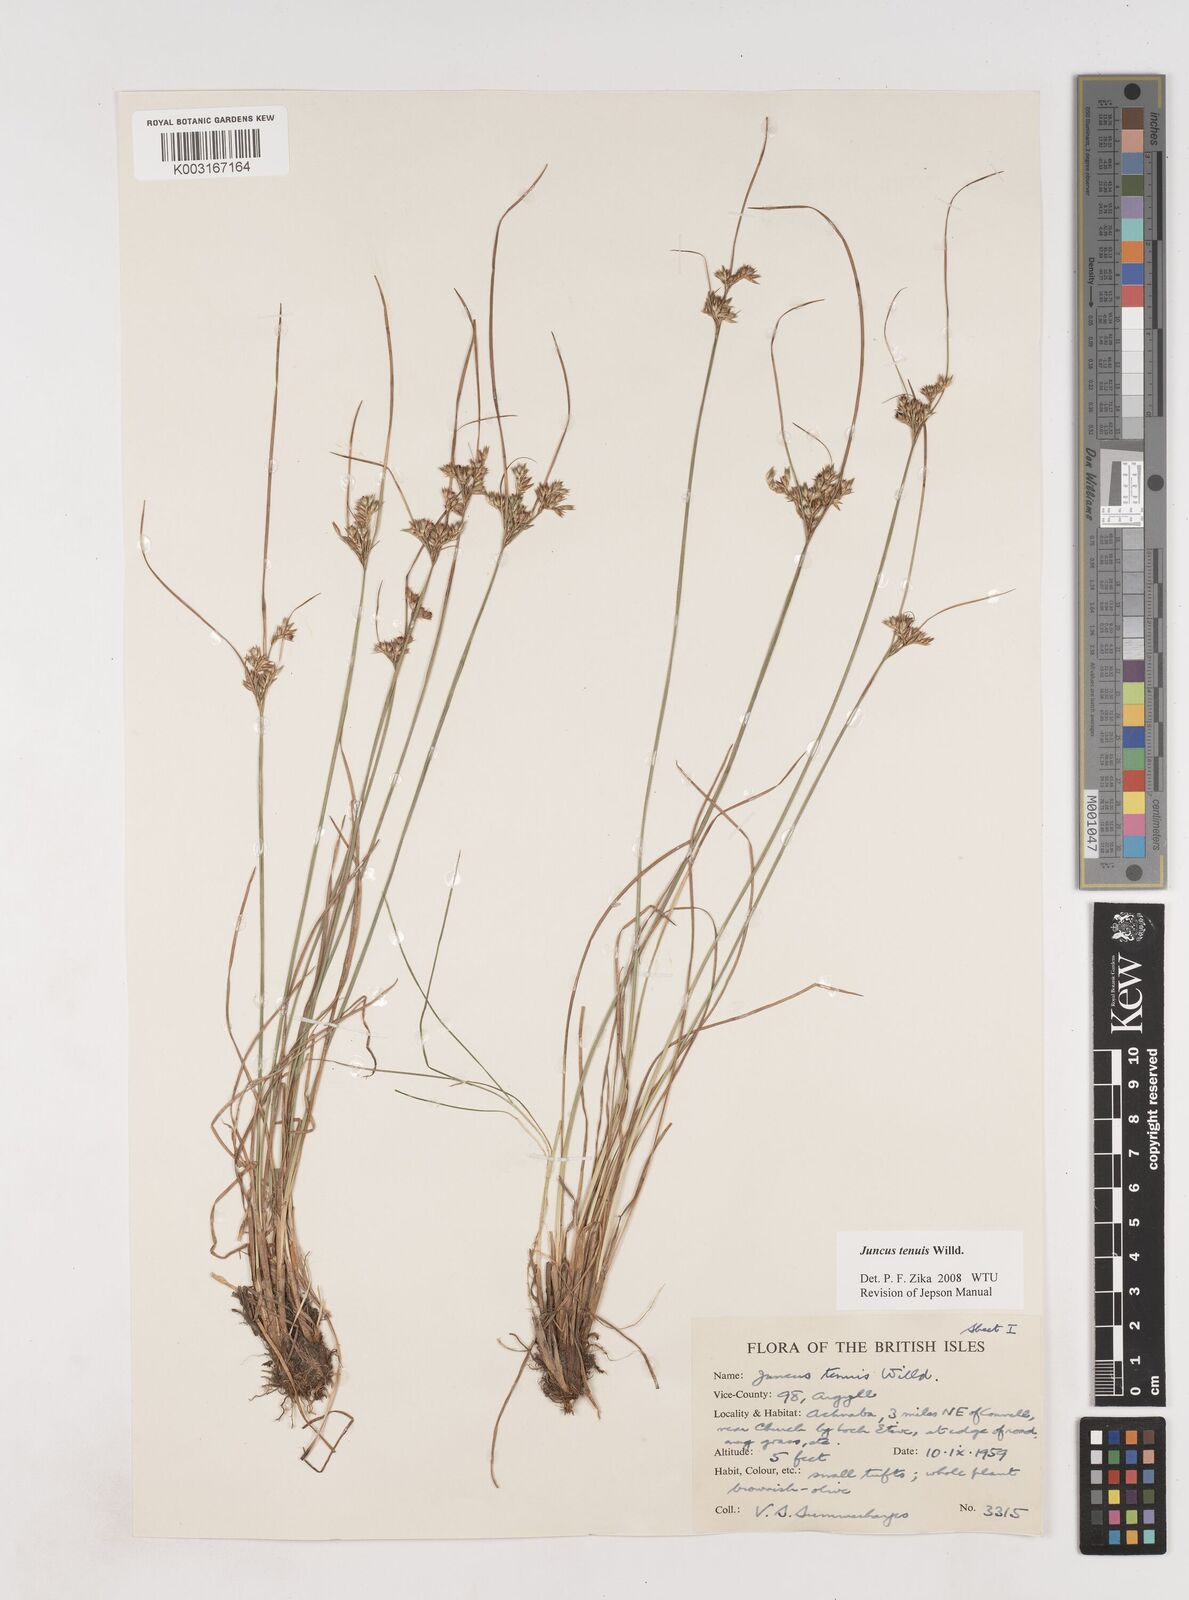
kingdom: Plantae
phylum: Tracheophyta
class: Liliopsida
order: Poales
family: Juncaceae
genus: Juncus
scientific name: Juncus tenuis
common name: Slender rush
